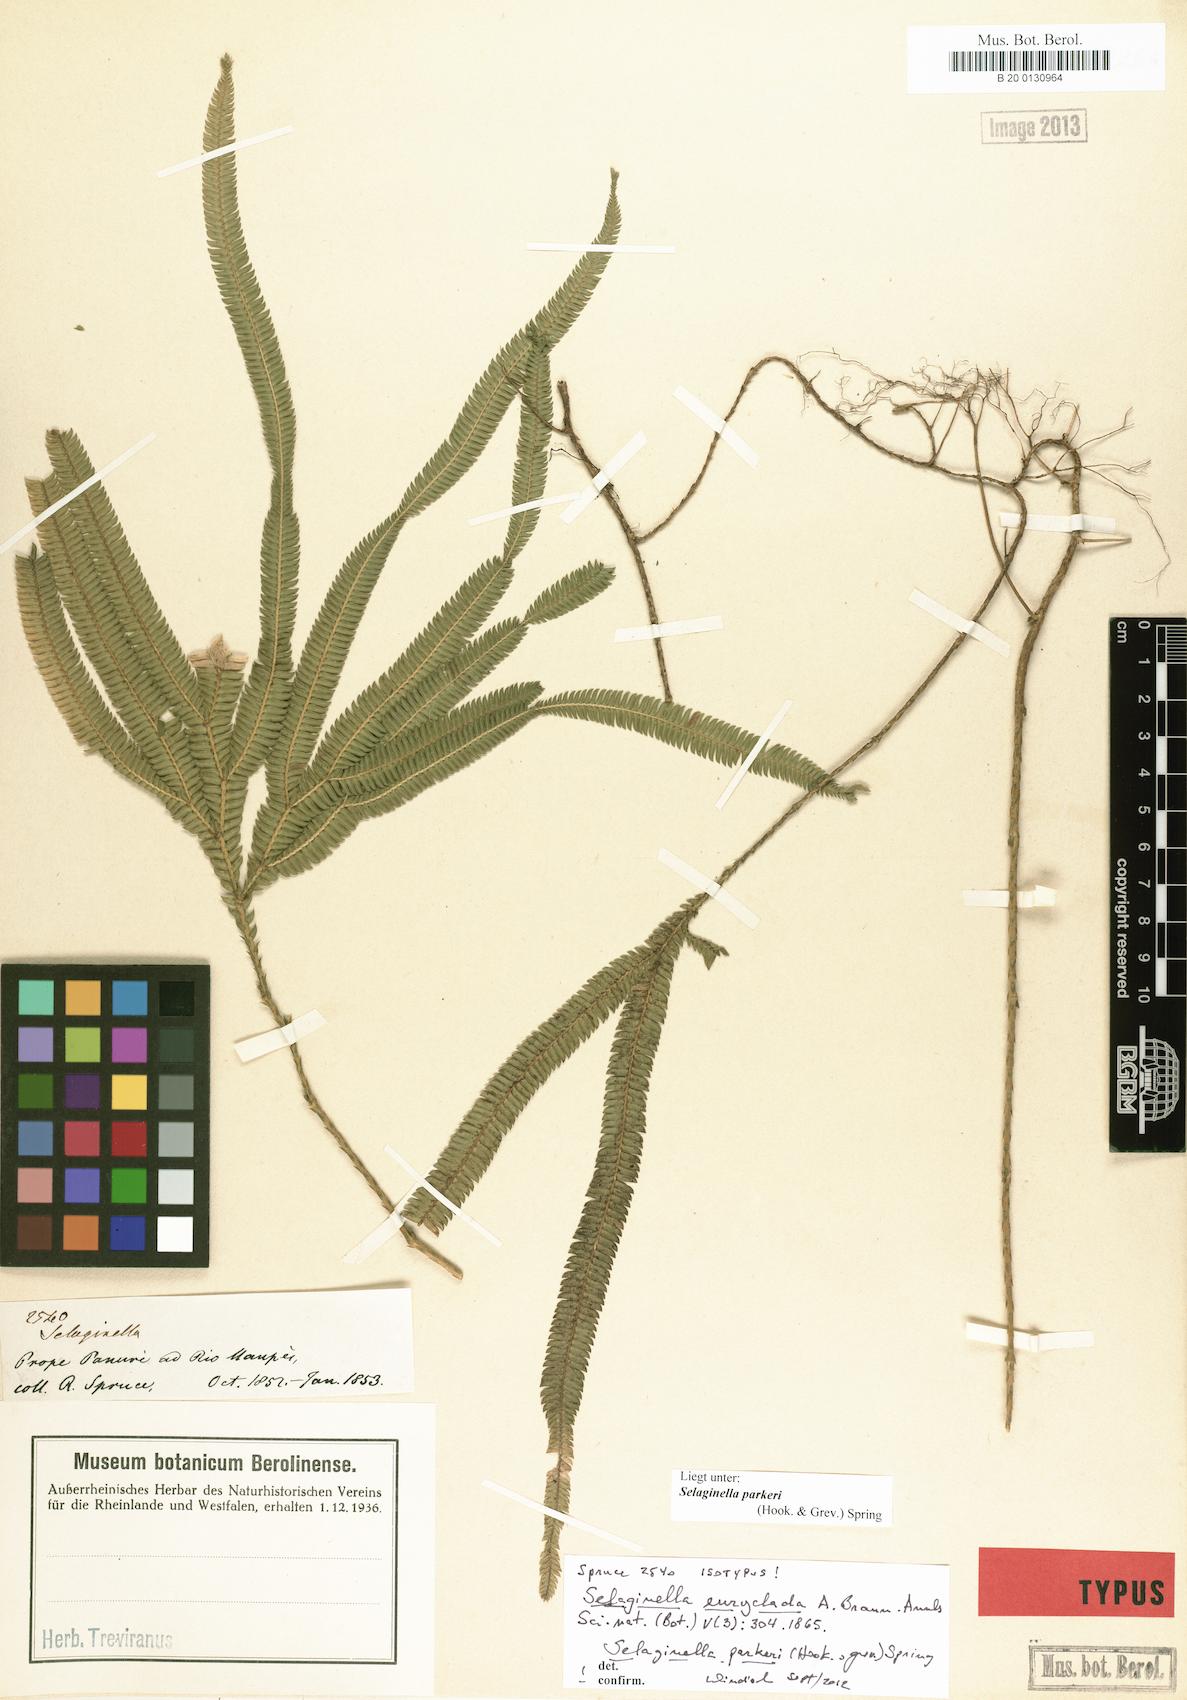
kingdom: Plantae
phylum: Tracheophyta
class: Lycopodiopsida
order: Selaginellales
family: Selaginellaceae
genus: Selaginella
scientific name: Selaginella parkeri
